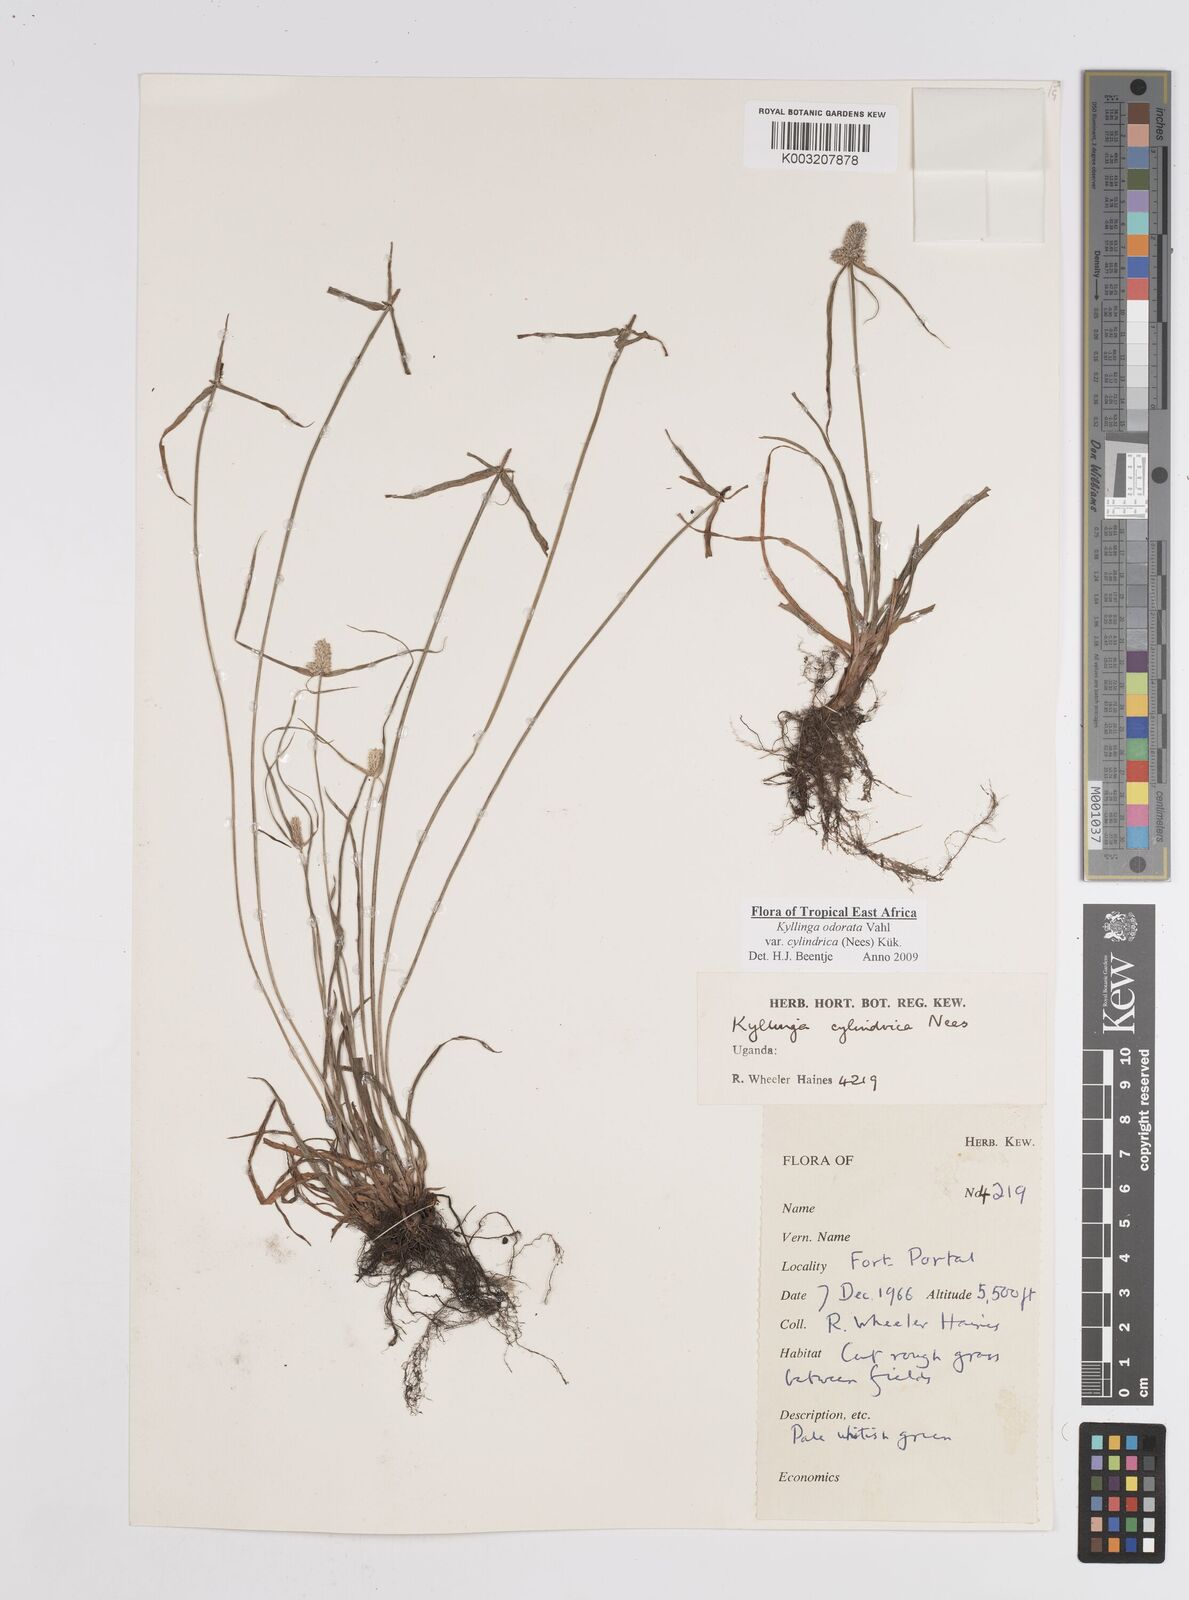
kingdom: Plantae
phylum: Tracheophyta
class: Liliopsida
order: Poales
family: Cyperaceae
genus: Cyperus
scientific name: Cyperus
